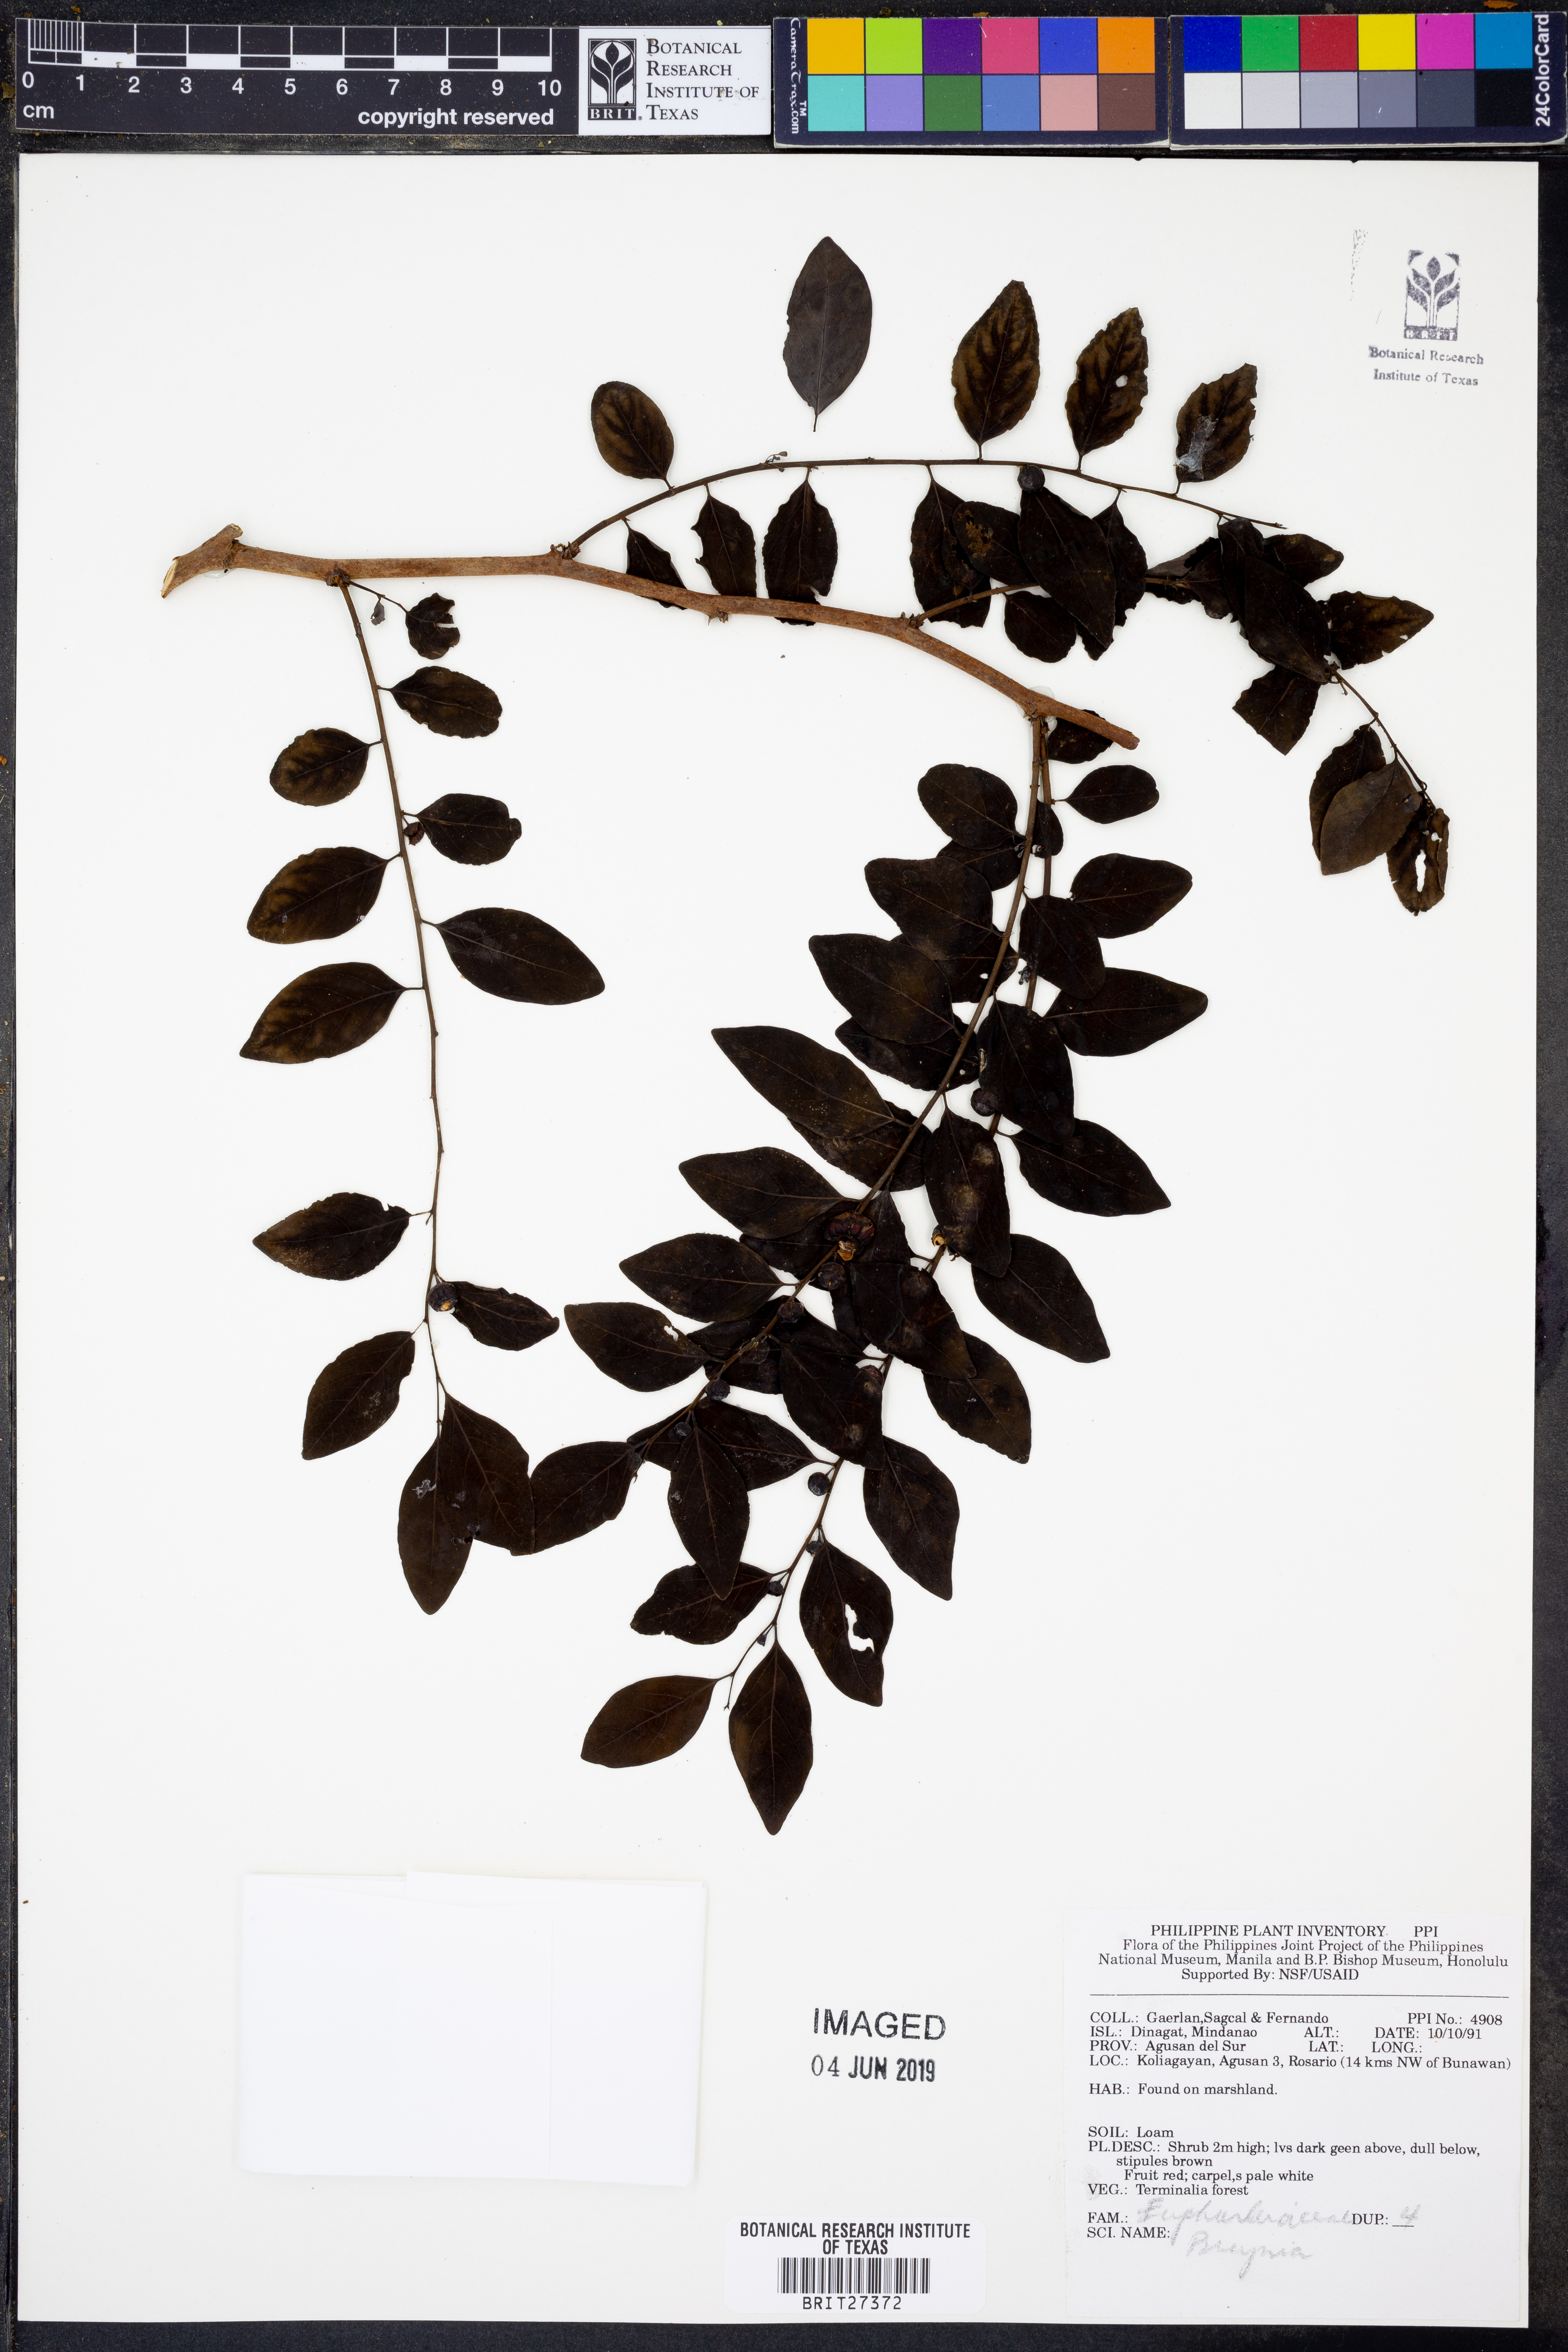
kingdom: Plantae
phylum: Tracheophyta
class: Magnoliopsida
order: Malpighiales
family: Phyllanthaceae
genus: Breynia
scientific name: Breynia
